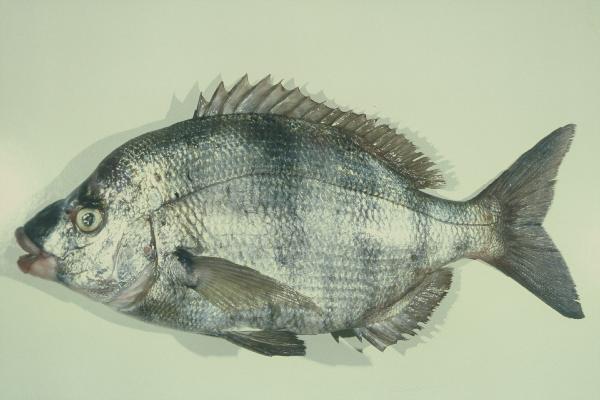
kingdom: Animalia
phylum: Chordata
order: Perciformes
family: Sparidae
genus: Diplodus
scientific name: Diplodus hottentotus
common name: Zebra
